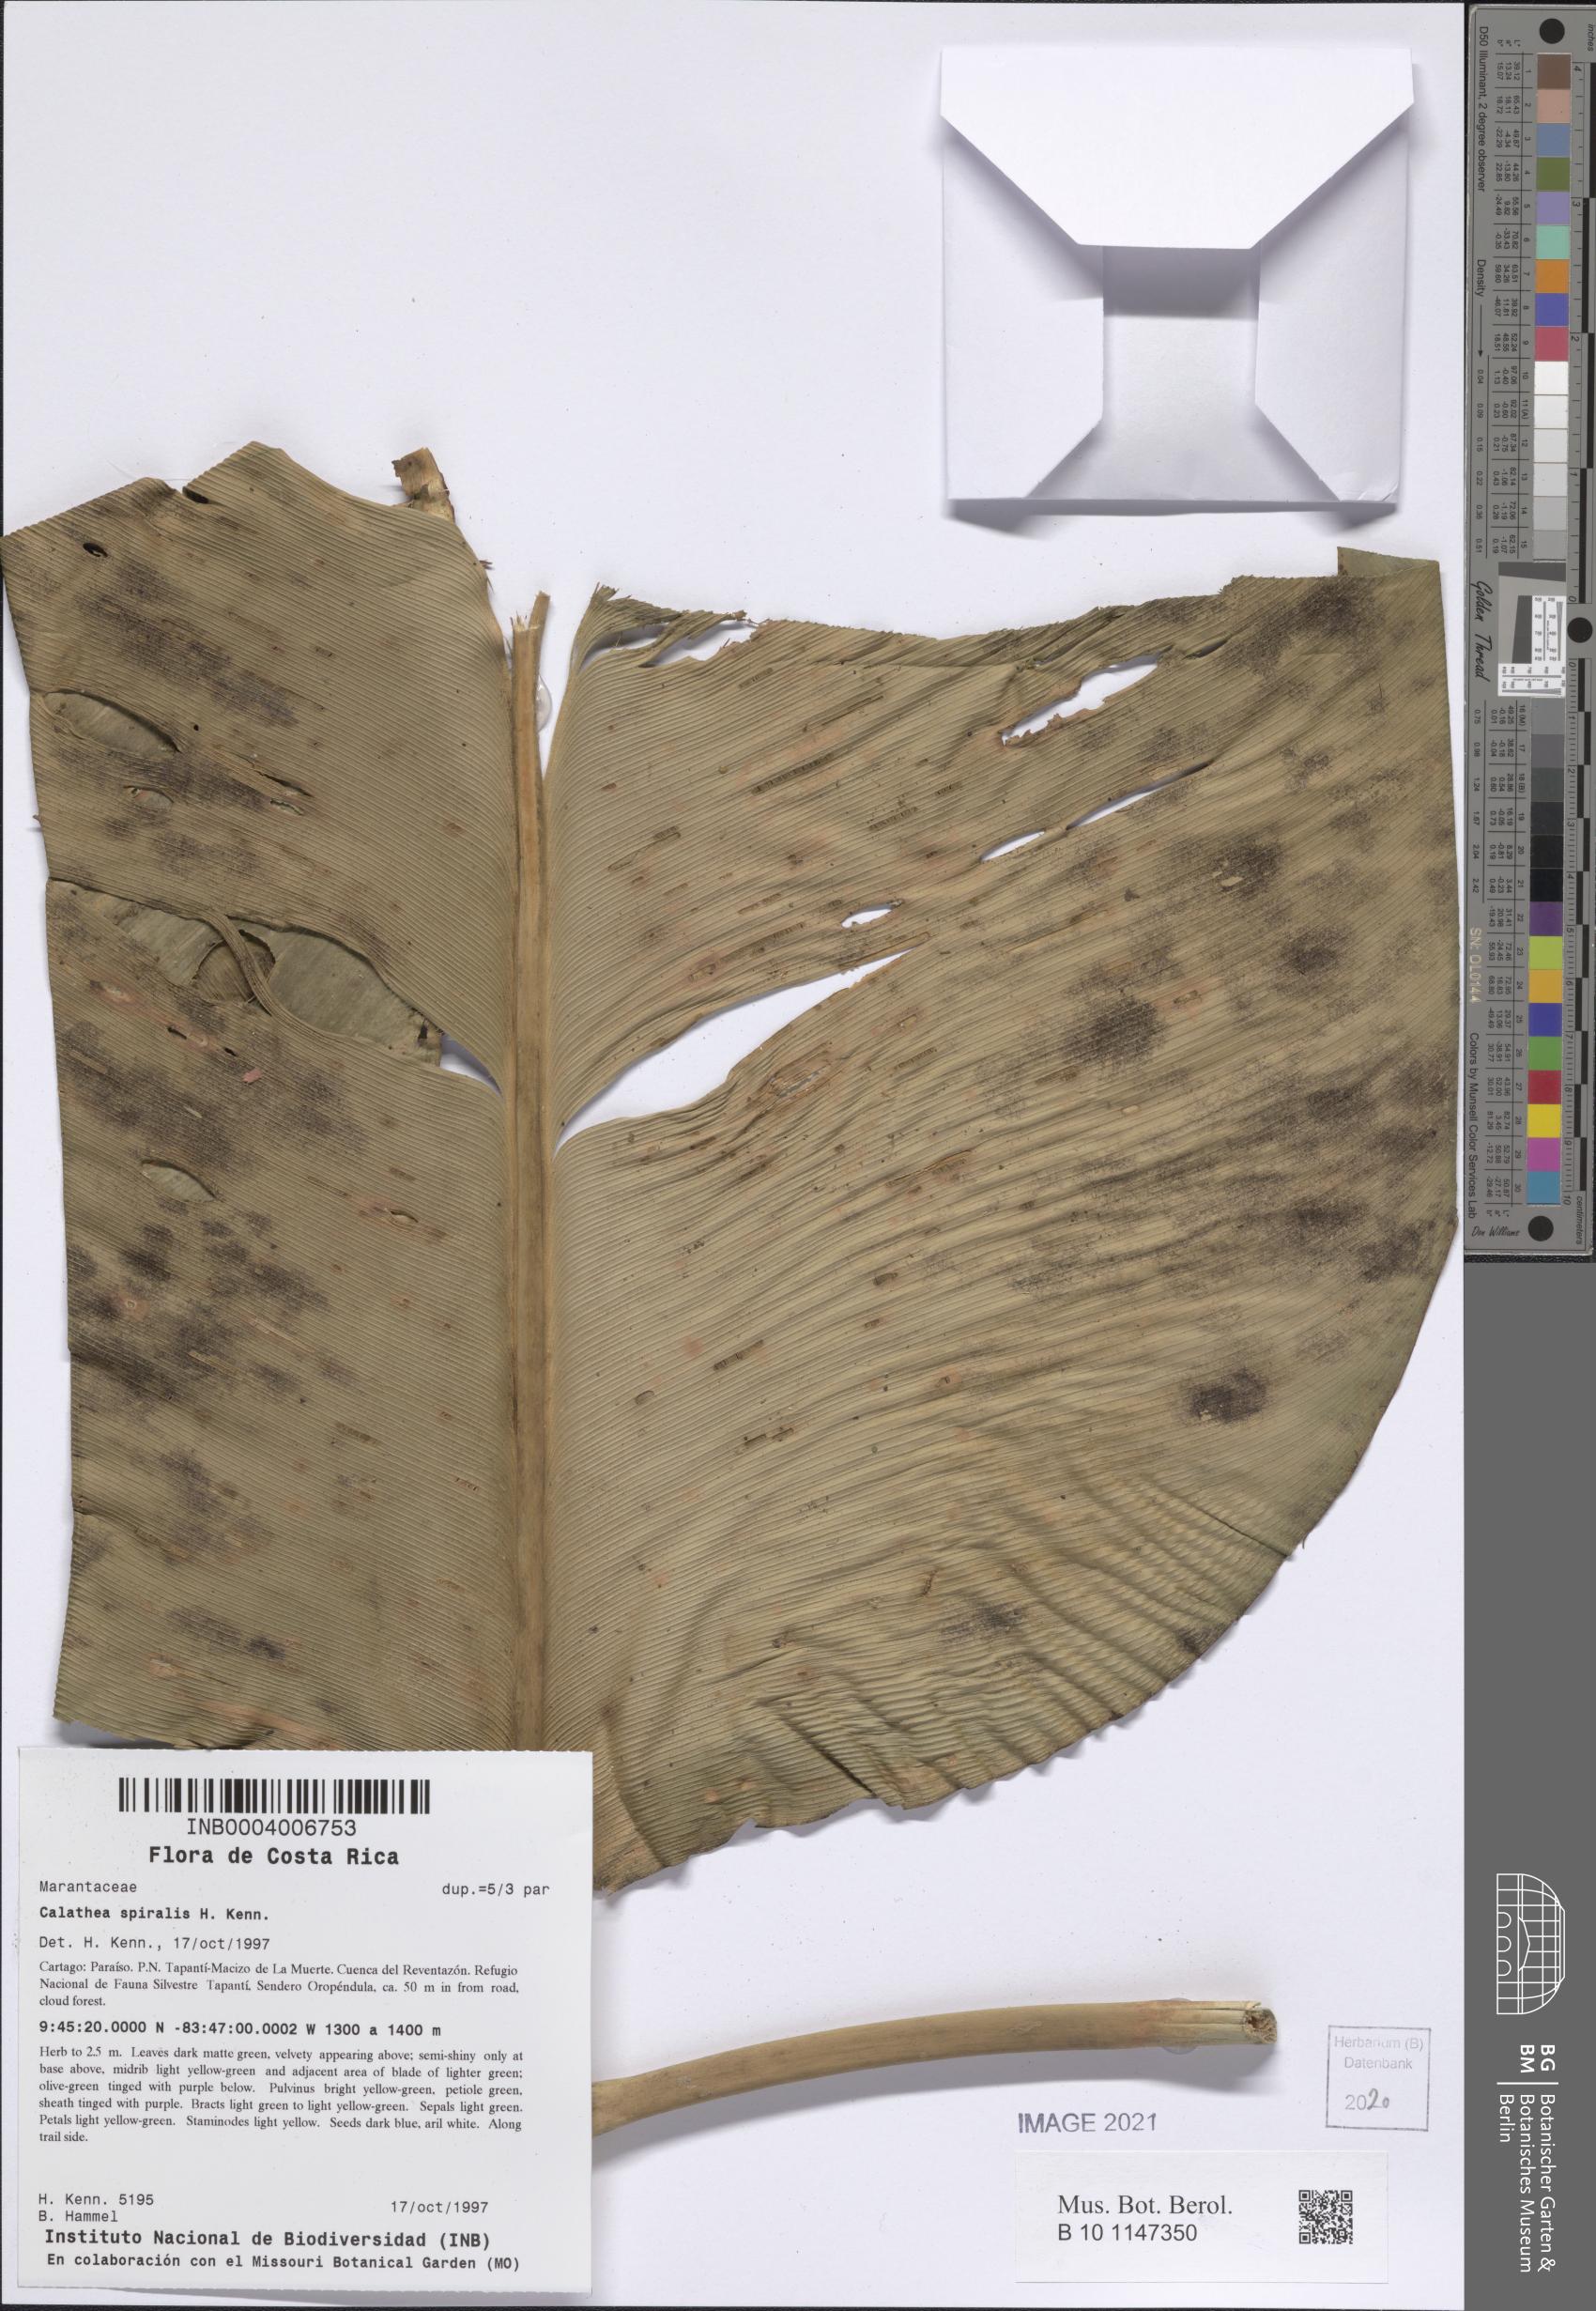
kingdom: Plantae
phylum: Tracheophyta
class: Liliopsida
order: Zingiberales
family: Marantaceae
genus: Calathea
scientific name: Calathea spiralis
